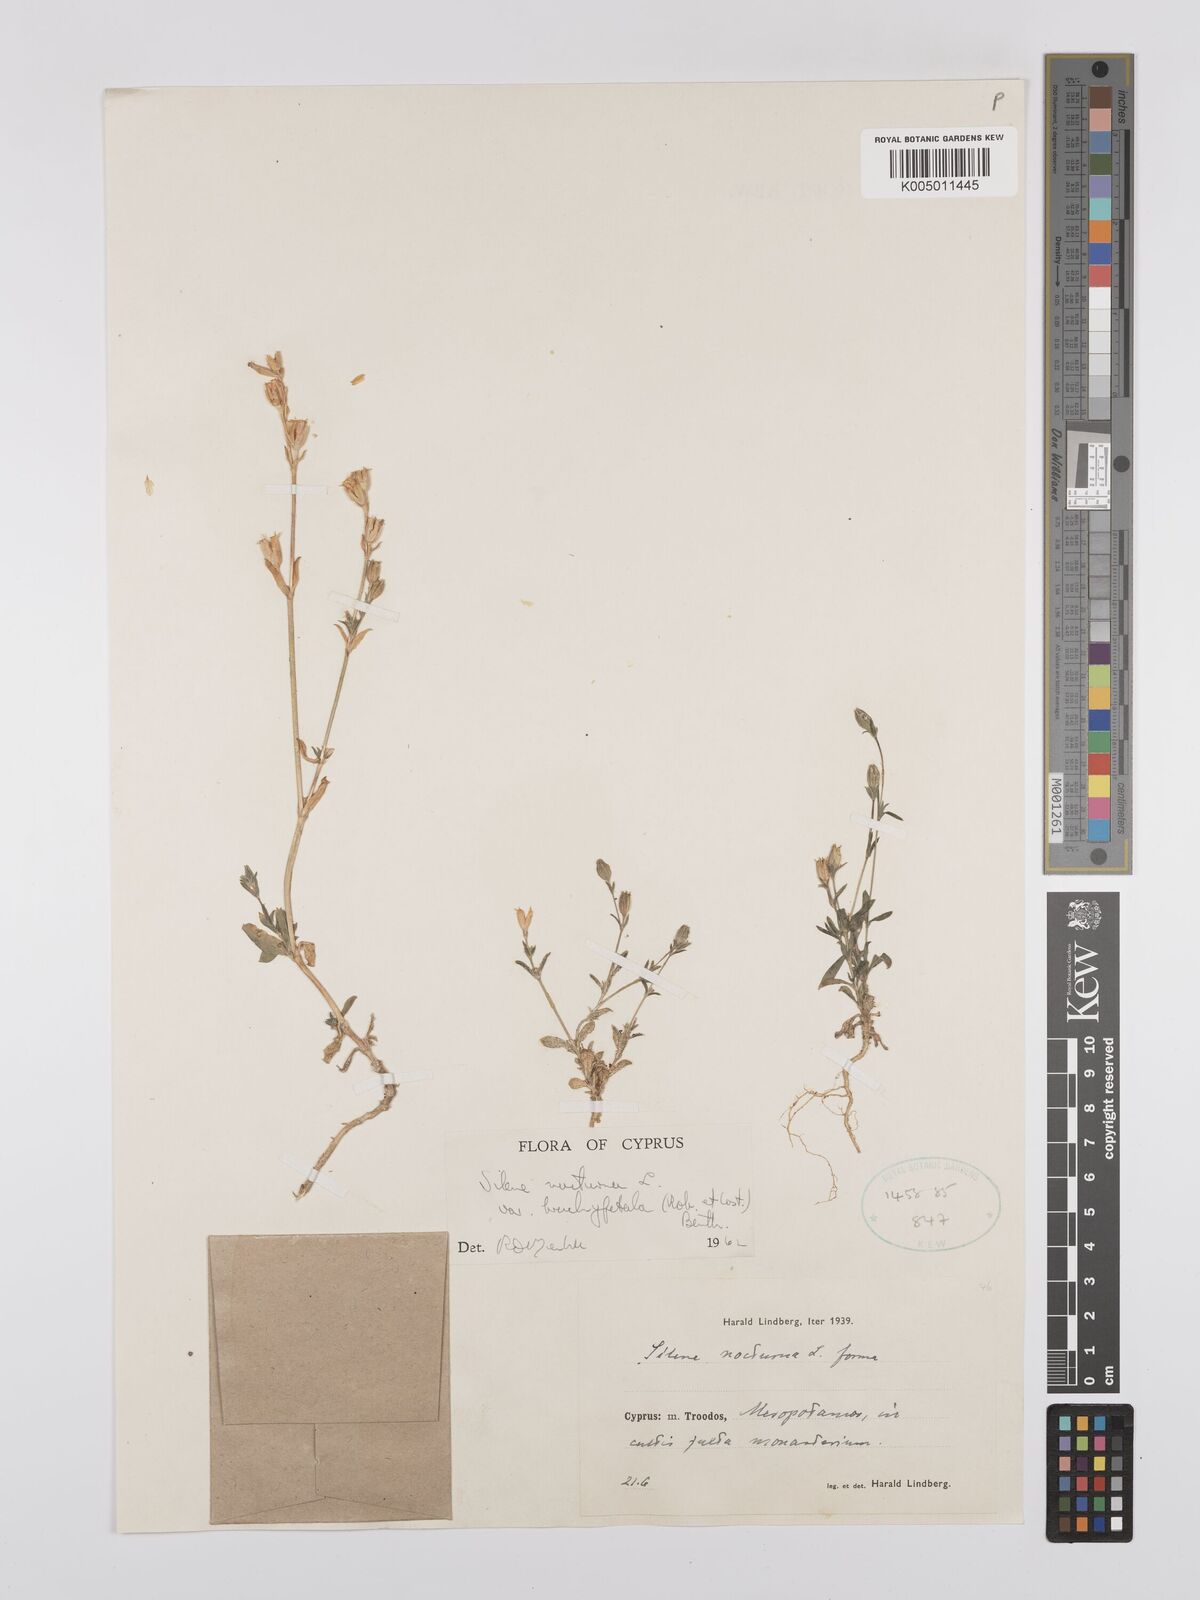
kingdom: Plantae
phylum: Tracheophyta
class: Magnoliopsida
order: Caryophyllales
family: Caryophyllaceae
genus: Silene
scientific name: Silene nocturna
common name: Mediterranean catchfly
